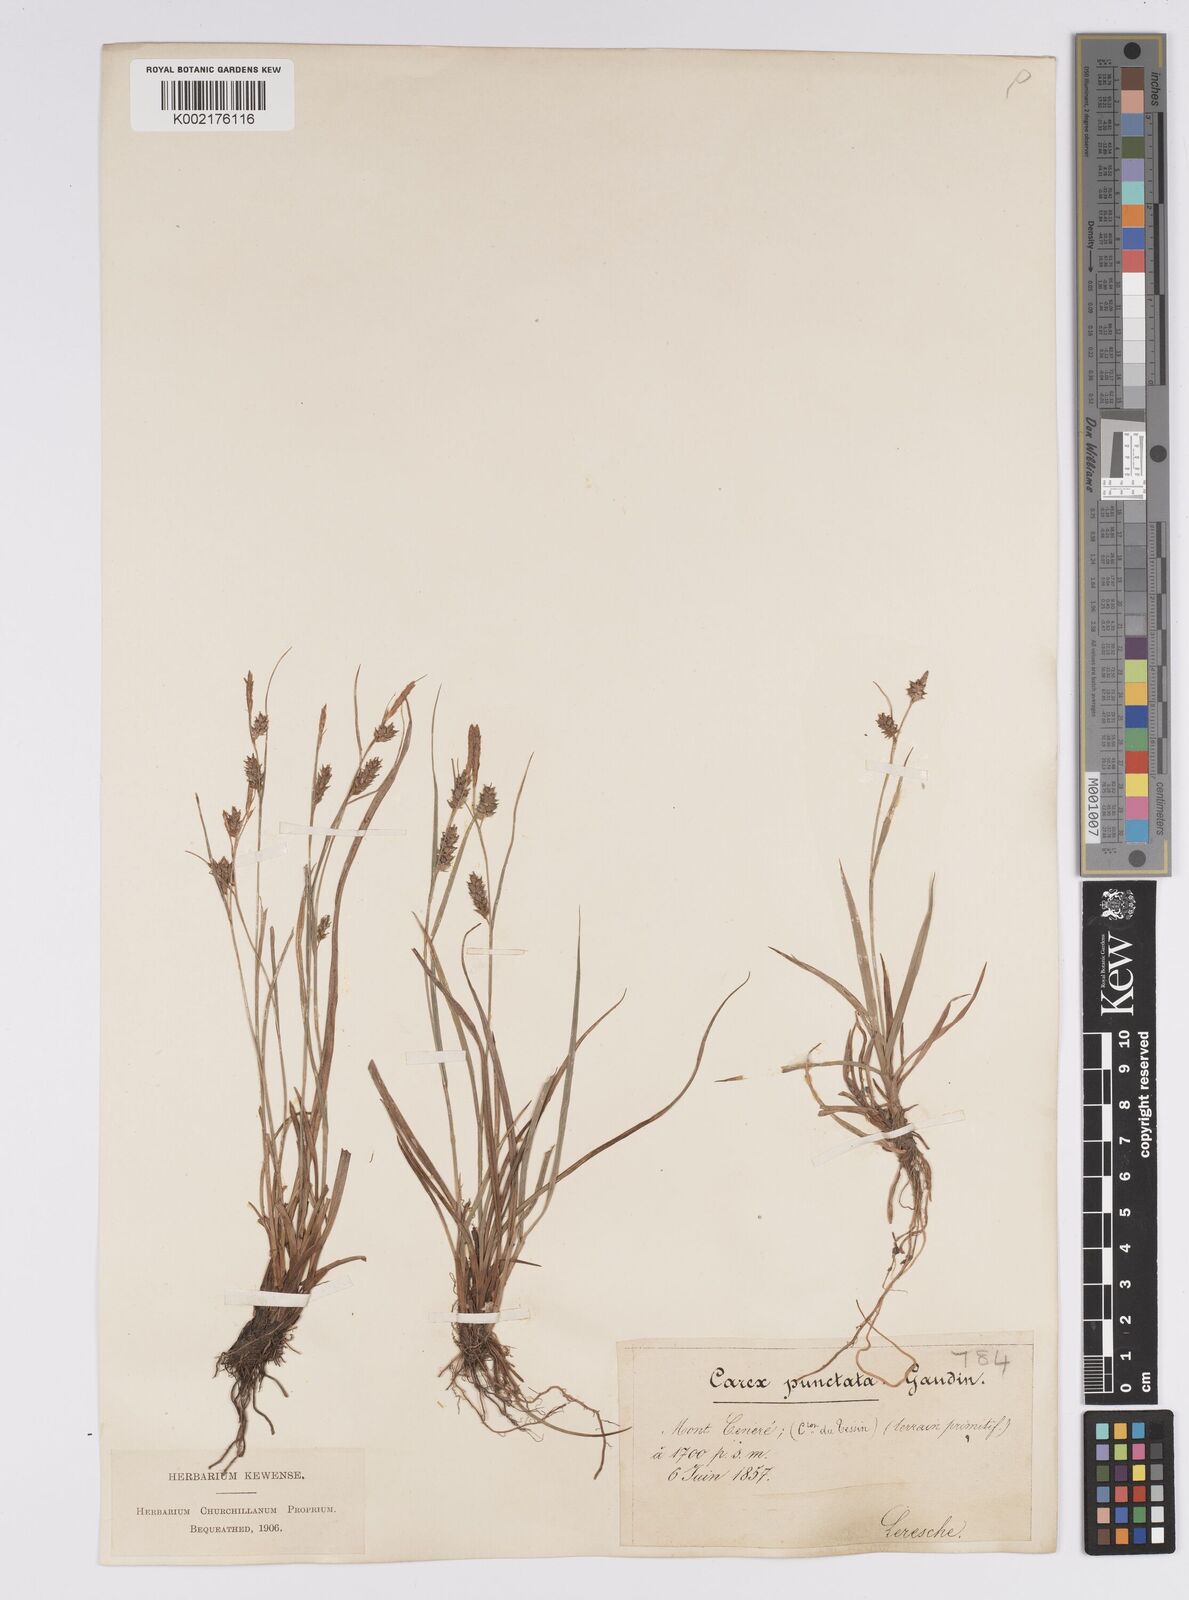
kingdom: Plantae
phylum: Tracheophyta
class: Liliopsida
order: Poales
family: Cyperaceae
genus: Carex
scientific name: Carex punctata
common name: Dotted sedge
